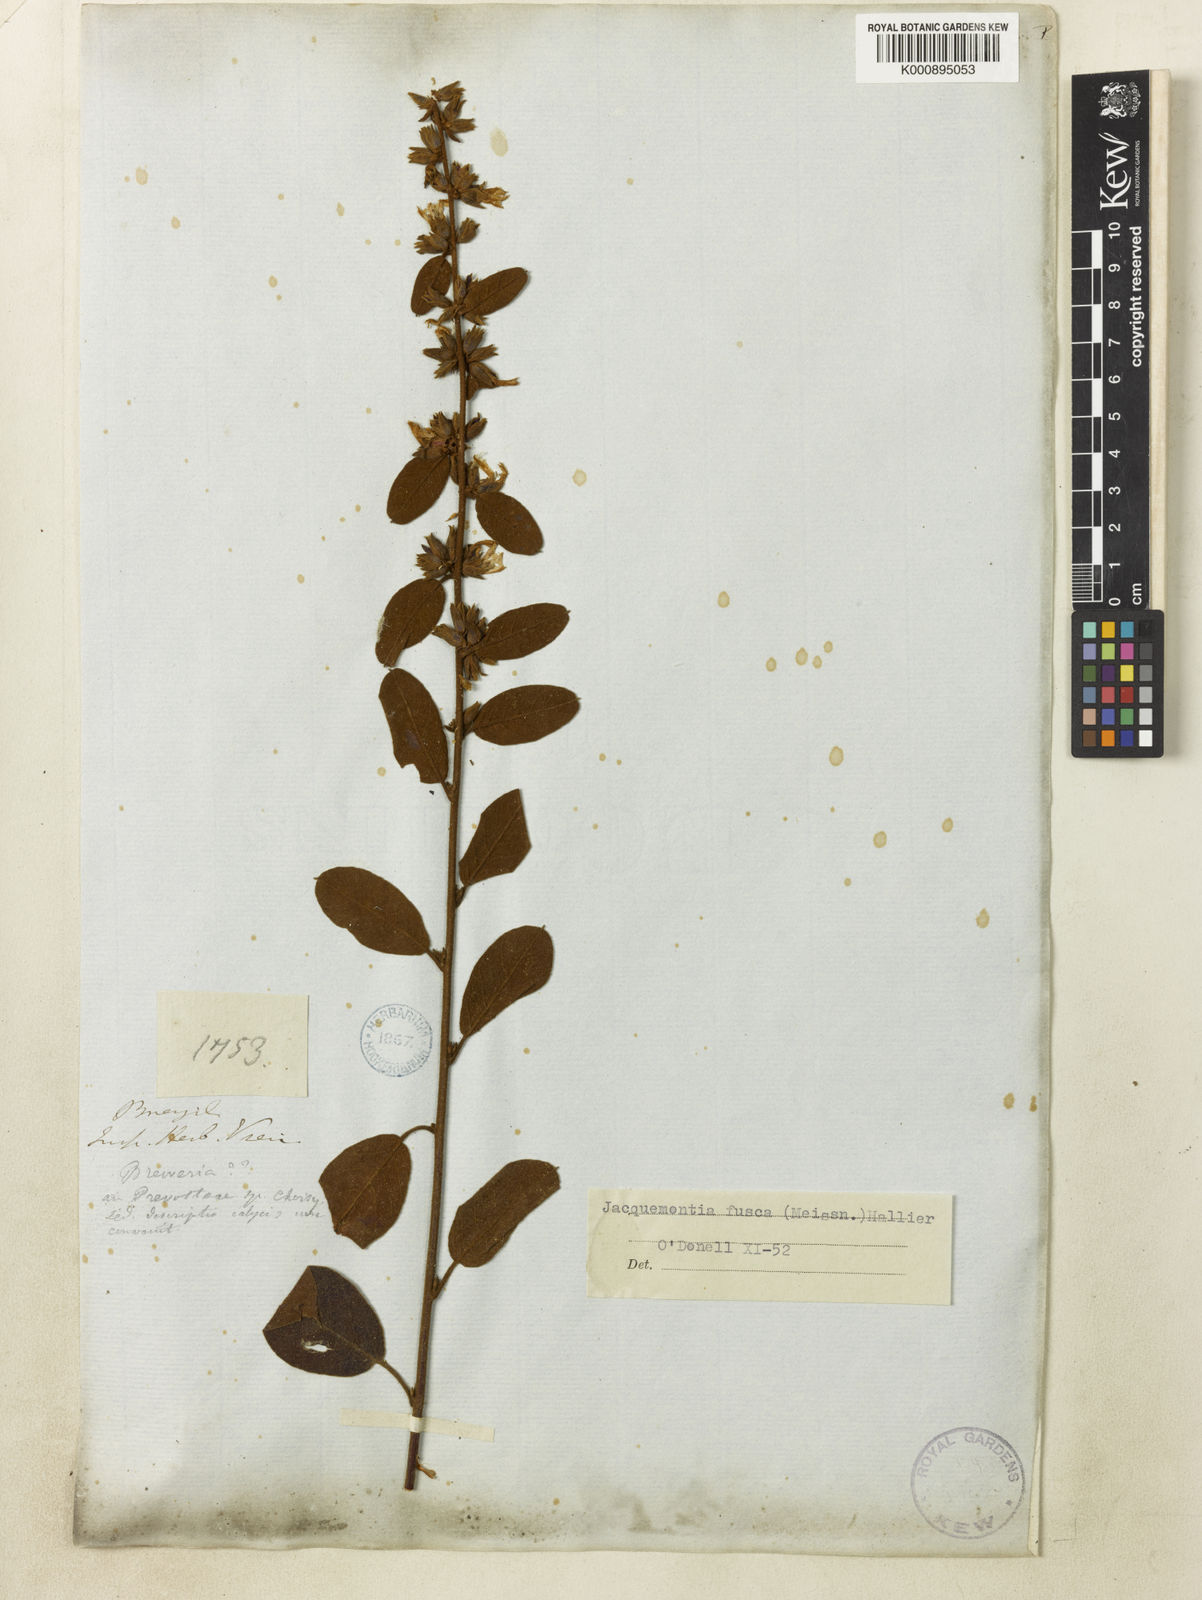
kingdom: Plantae
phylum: Tracheophyta
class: Magnoliopsida
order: Solanales
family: Convolvulaceae
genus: Jacquemontia
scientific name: Jacquemontia fusca
